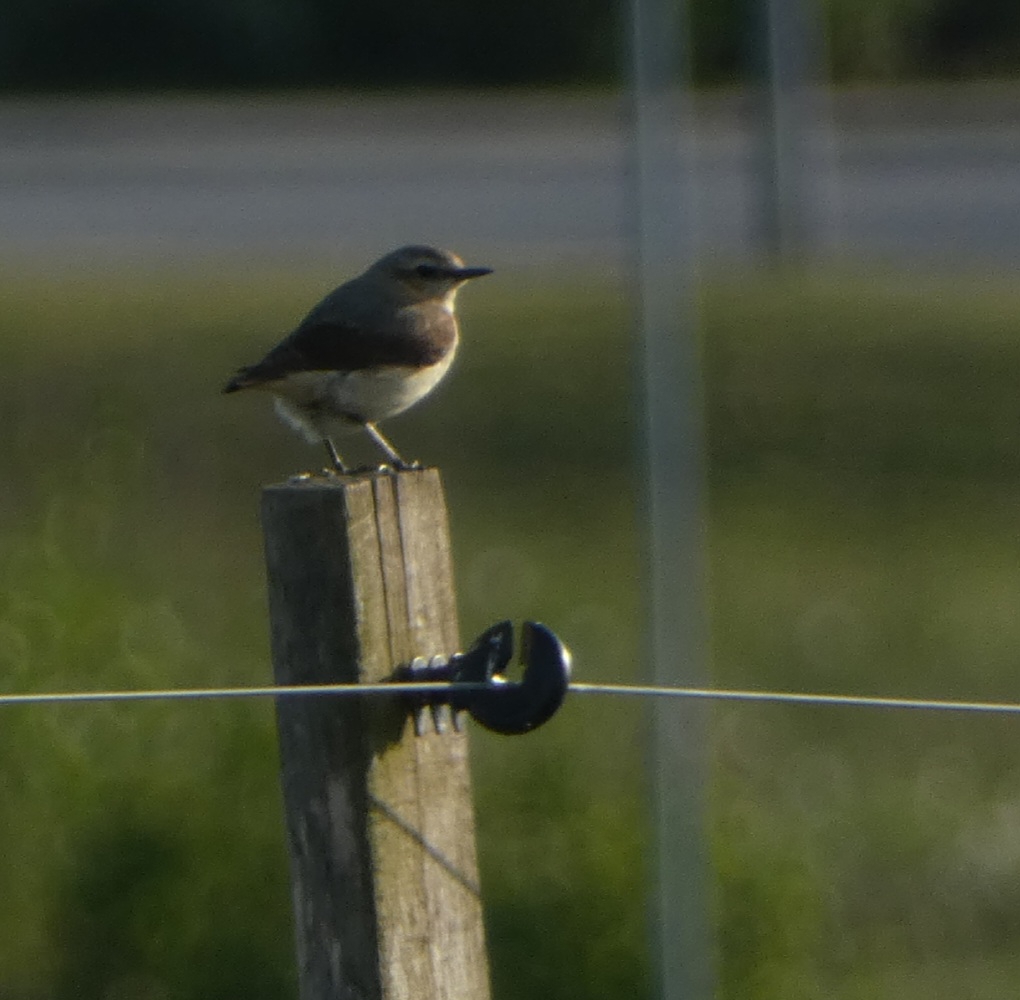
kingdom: Animalia
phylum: Chordata
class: Aves
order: Passeriformes
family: Muscicapidae
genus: Oenanthe
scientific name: Oenanthe oenanthe
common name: Stenpikker
